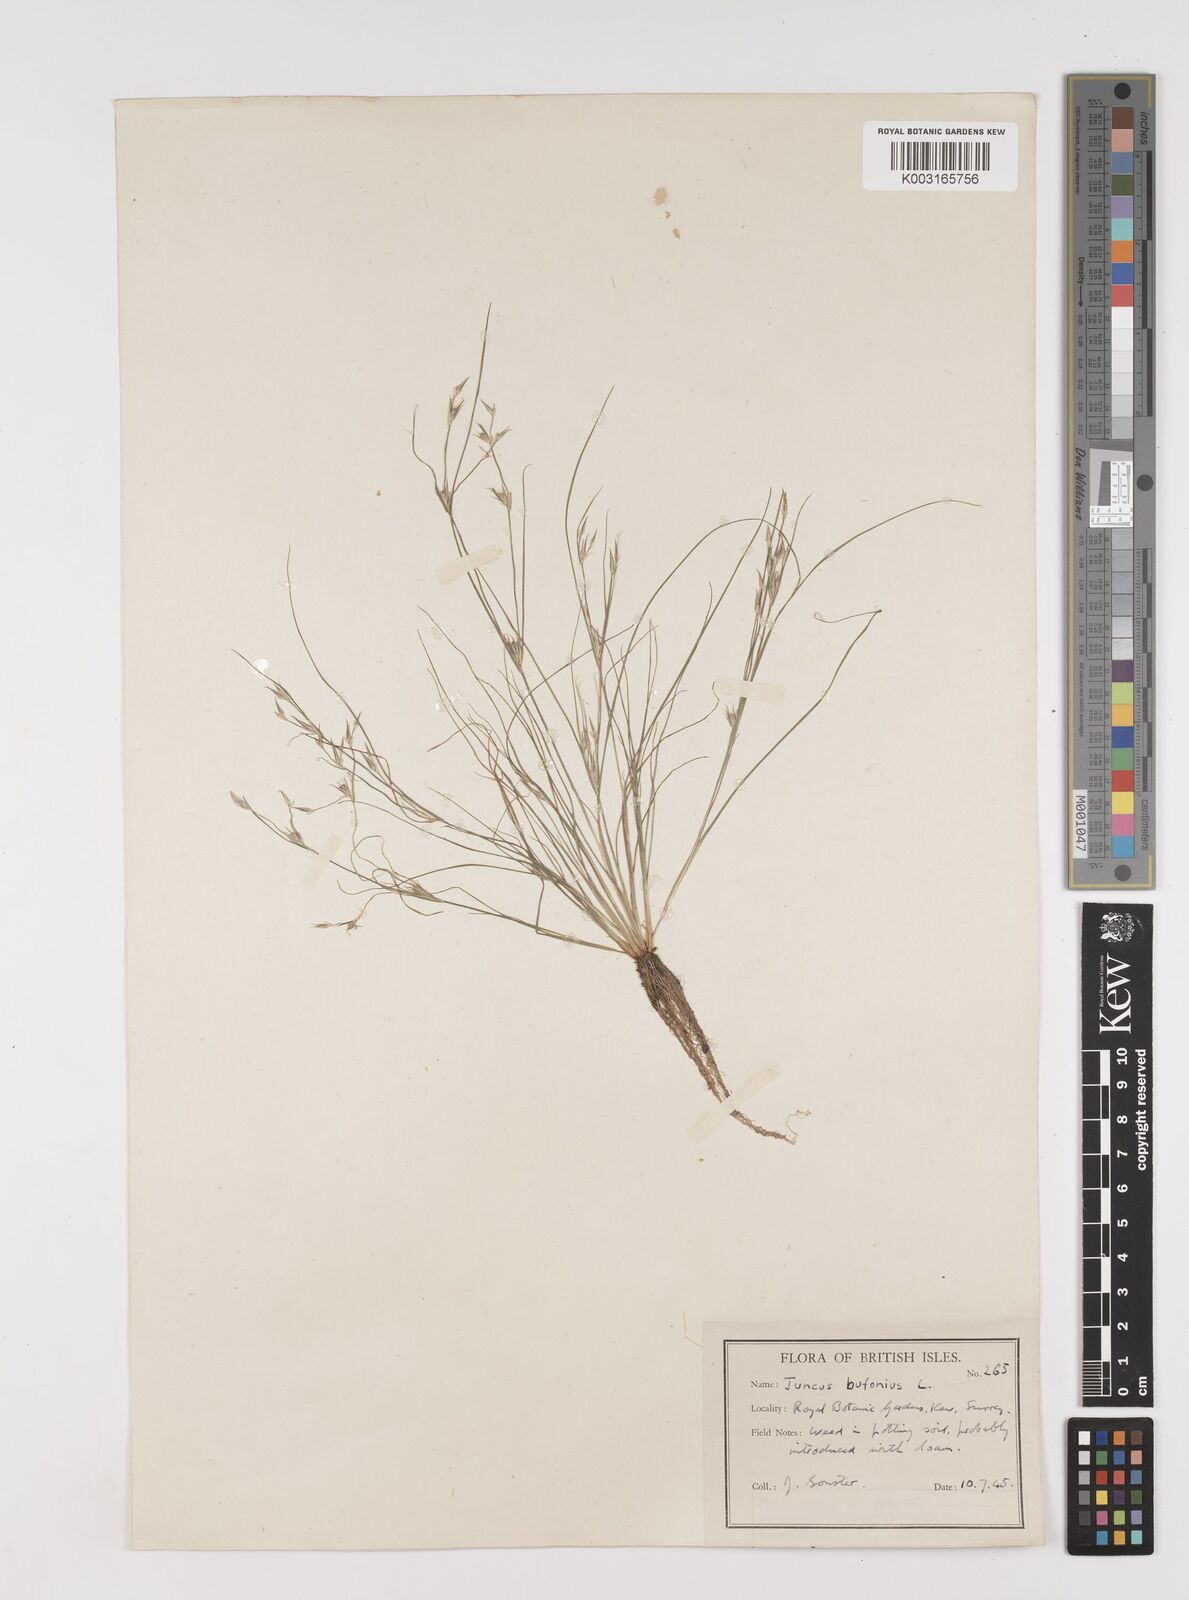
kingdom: Plantae
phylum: Tracheophyta
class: Liliopsida
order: Poales
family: Juncaceae
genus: Juncus
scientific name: Juncus bufonius
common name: Toad rush
